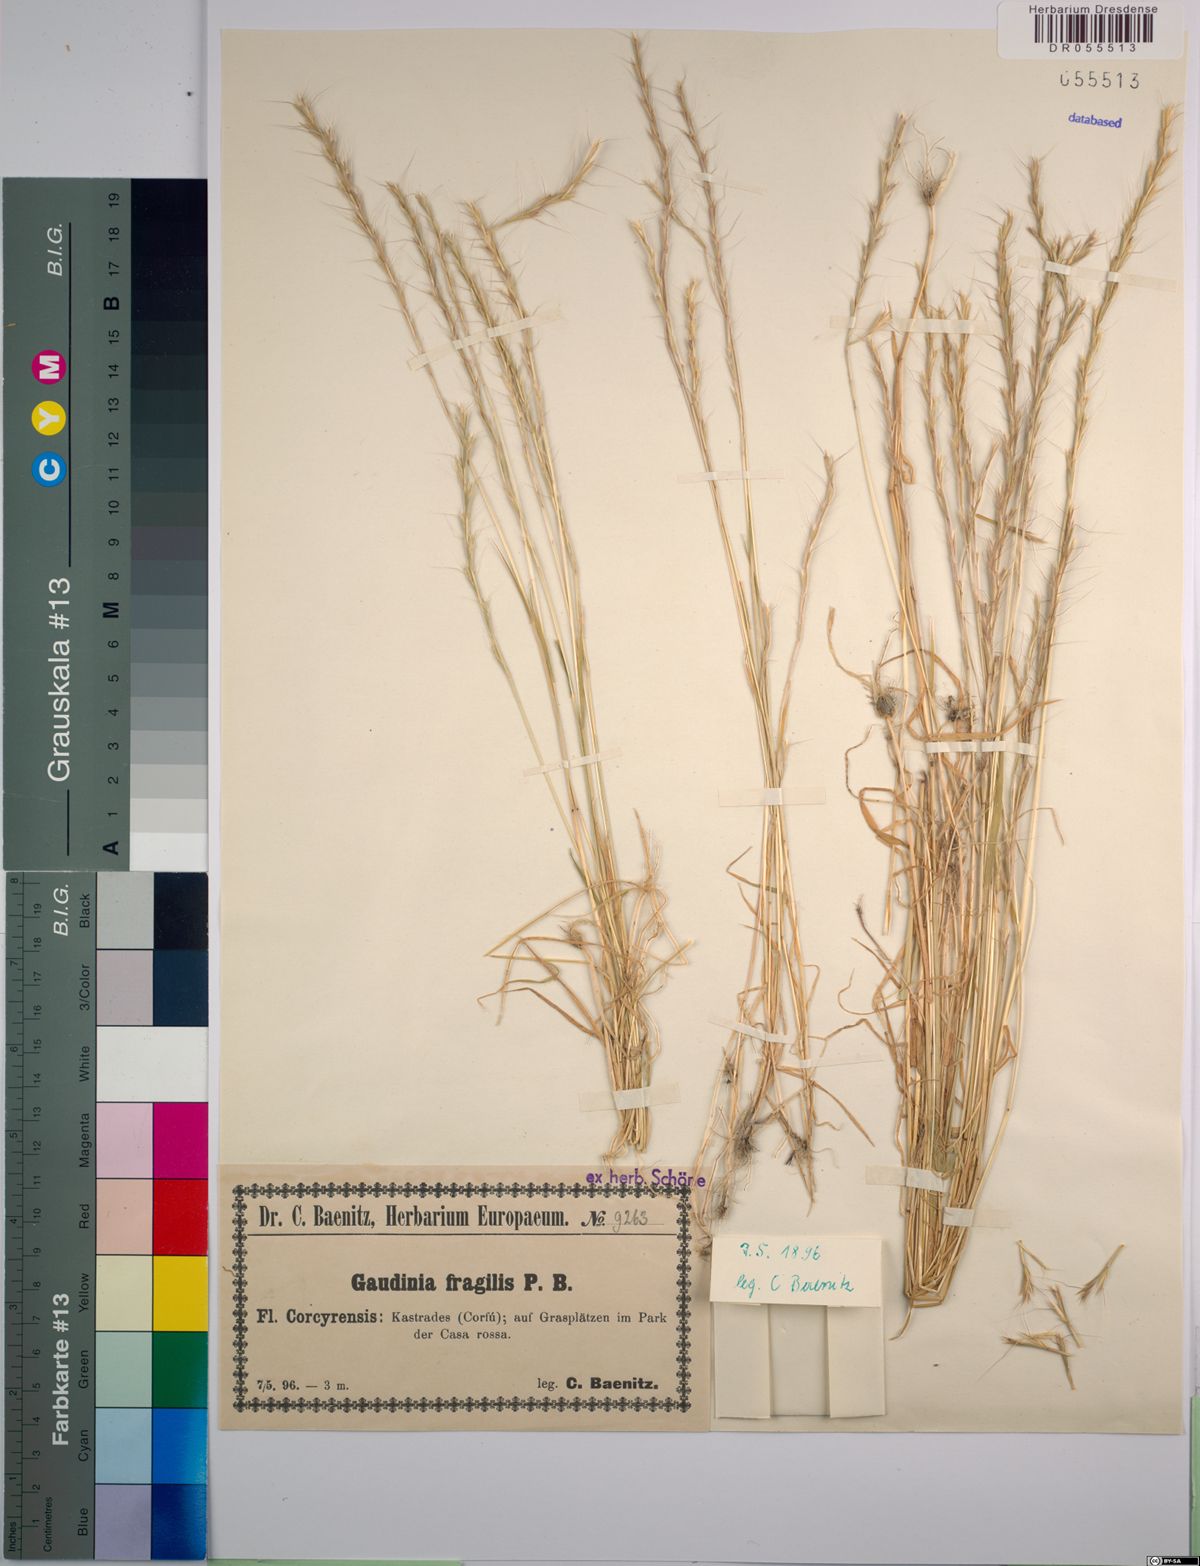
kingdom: Plantae
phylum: Tracheophyta
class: Liliopsida
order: Poales
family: Poaceae
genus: Gaudinia
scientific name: Gaudinia fragilis
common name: French oat-grass
